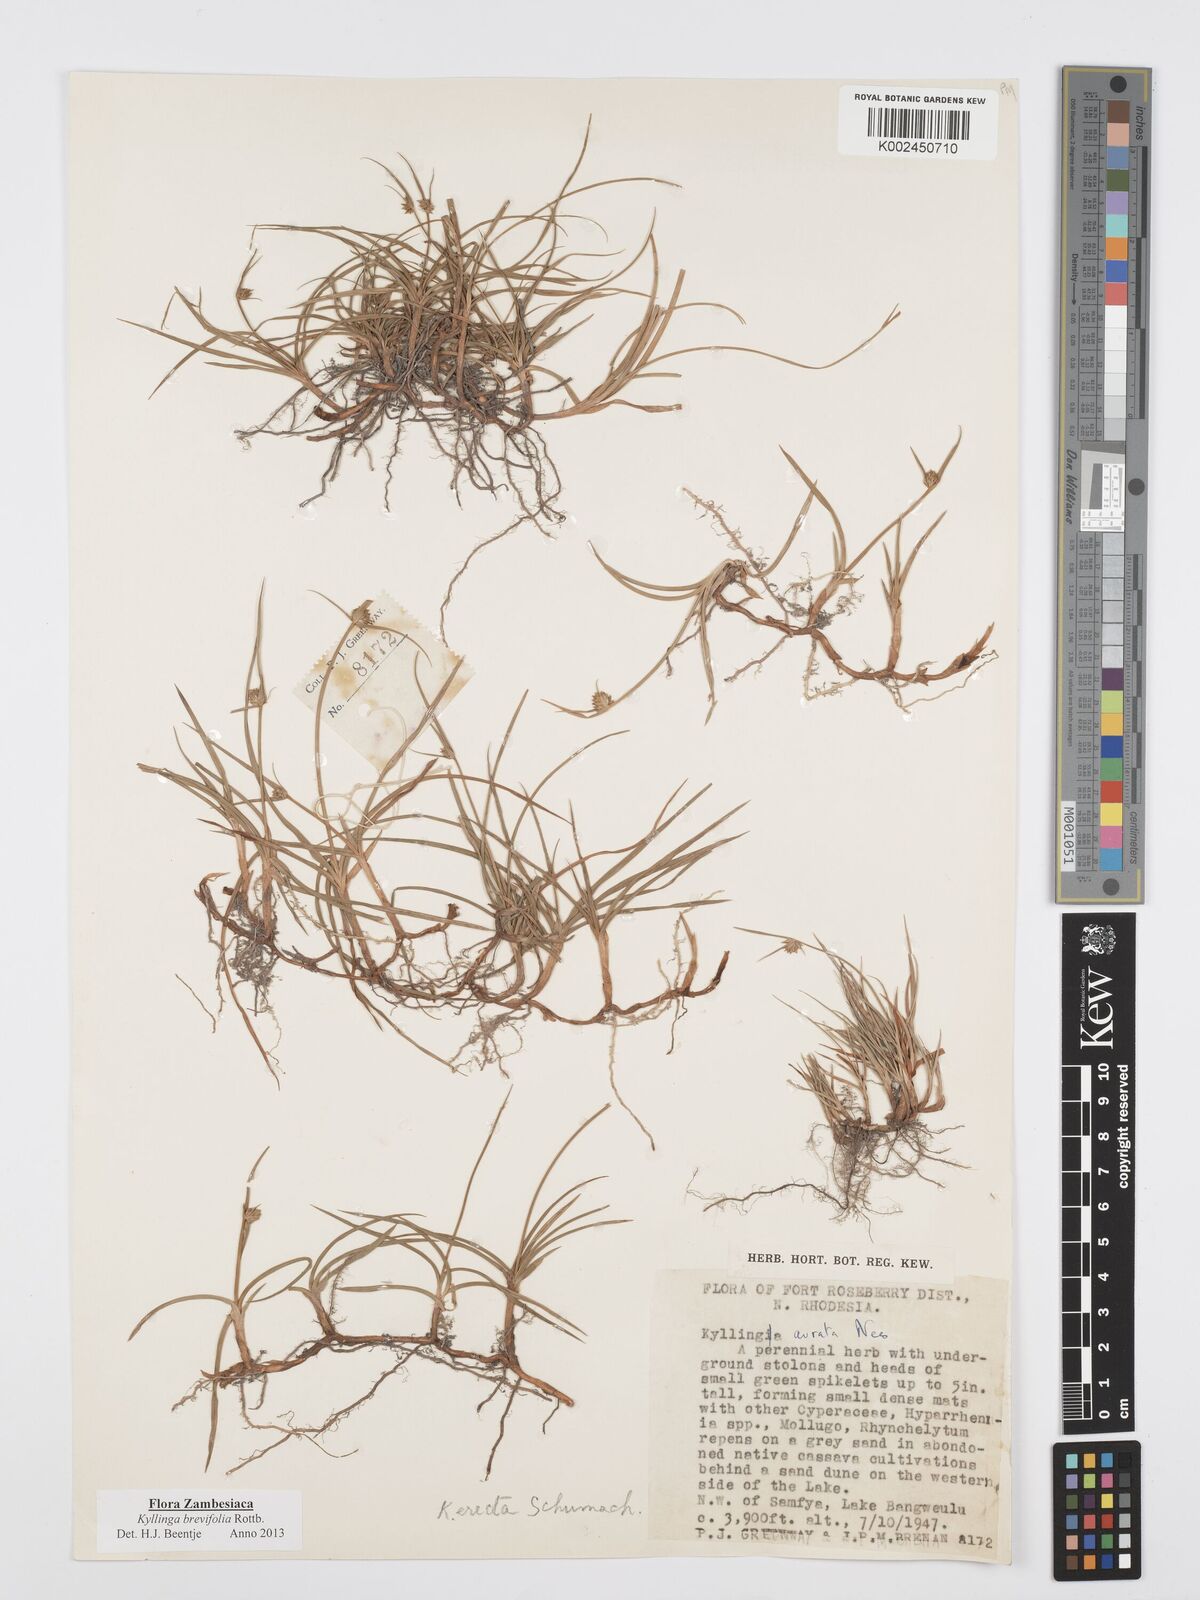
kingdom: Plantae
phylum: Tracheophyta
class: Liliopsida
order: Poales
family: Cyperaceae
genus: Cyperus
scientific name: Cyperus brevifolius
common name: Globe kyllinga
